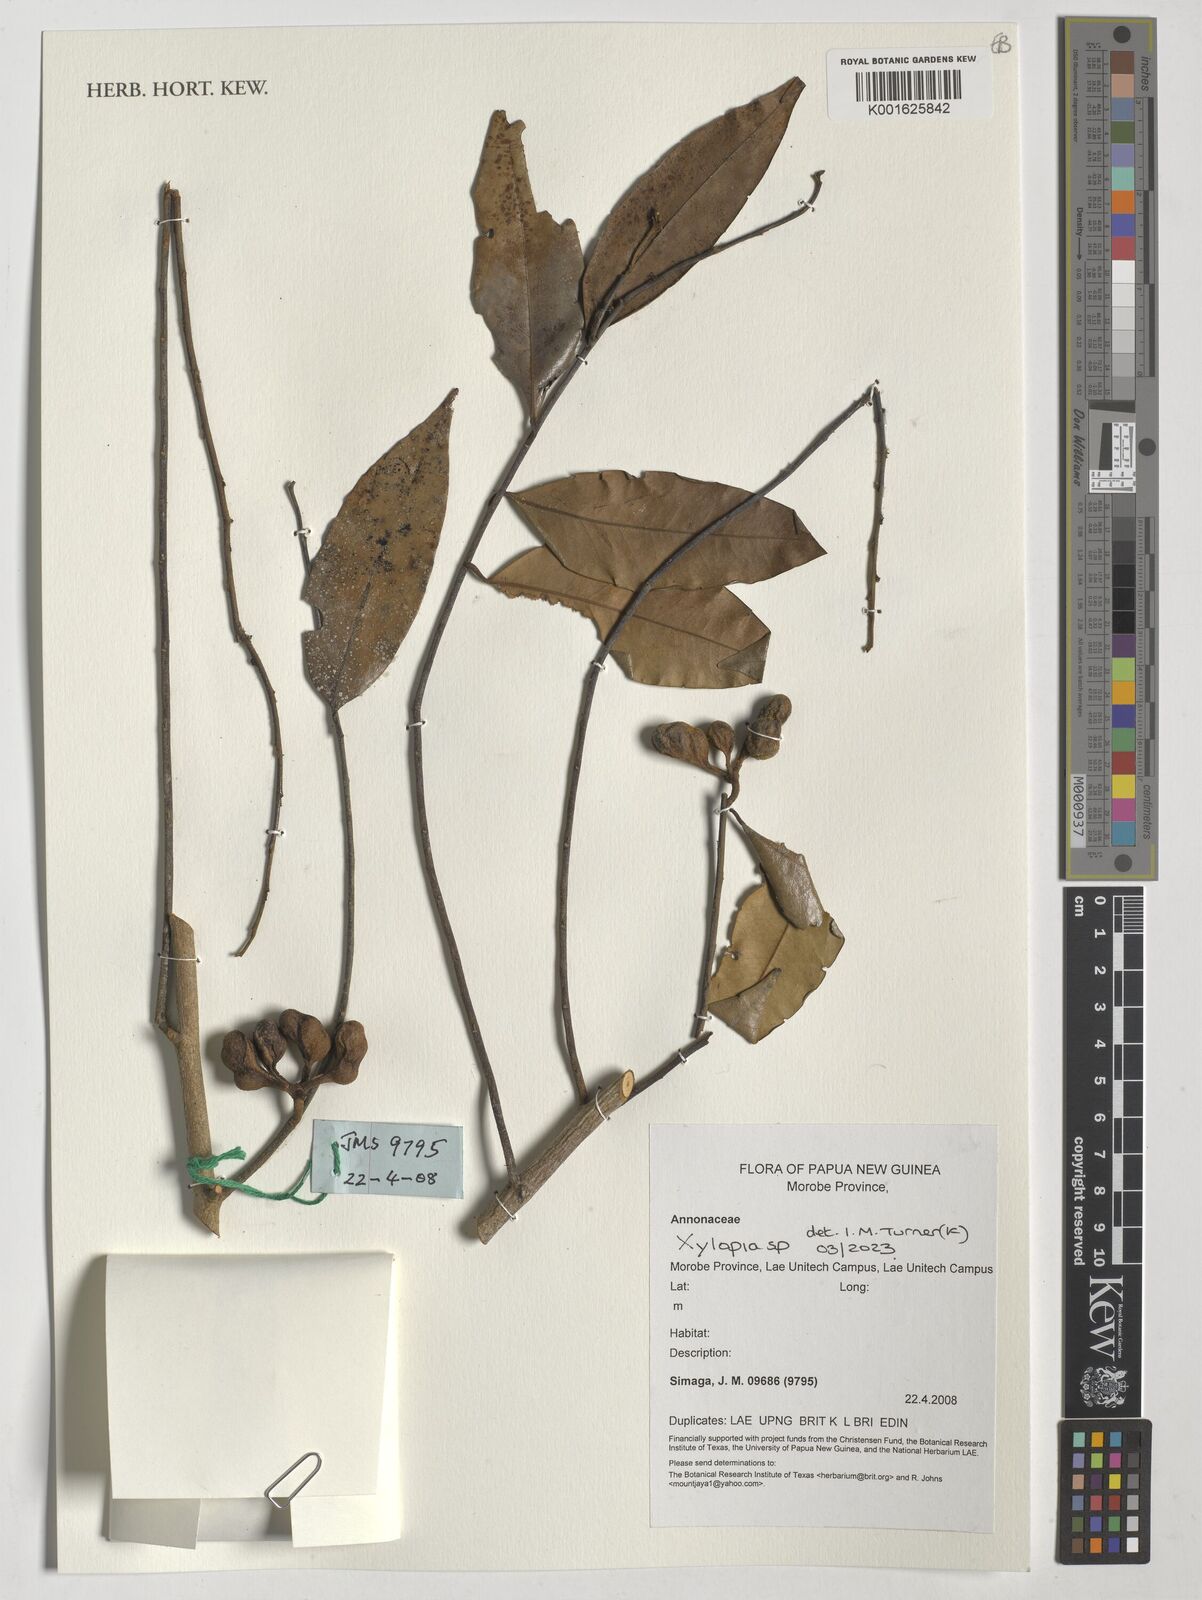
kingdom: Plantae
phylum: Tracheophyta
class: Magnoliopsida
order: Magnoliales
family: Annonaceae
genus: Xylopia
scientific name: Xylopia
